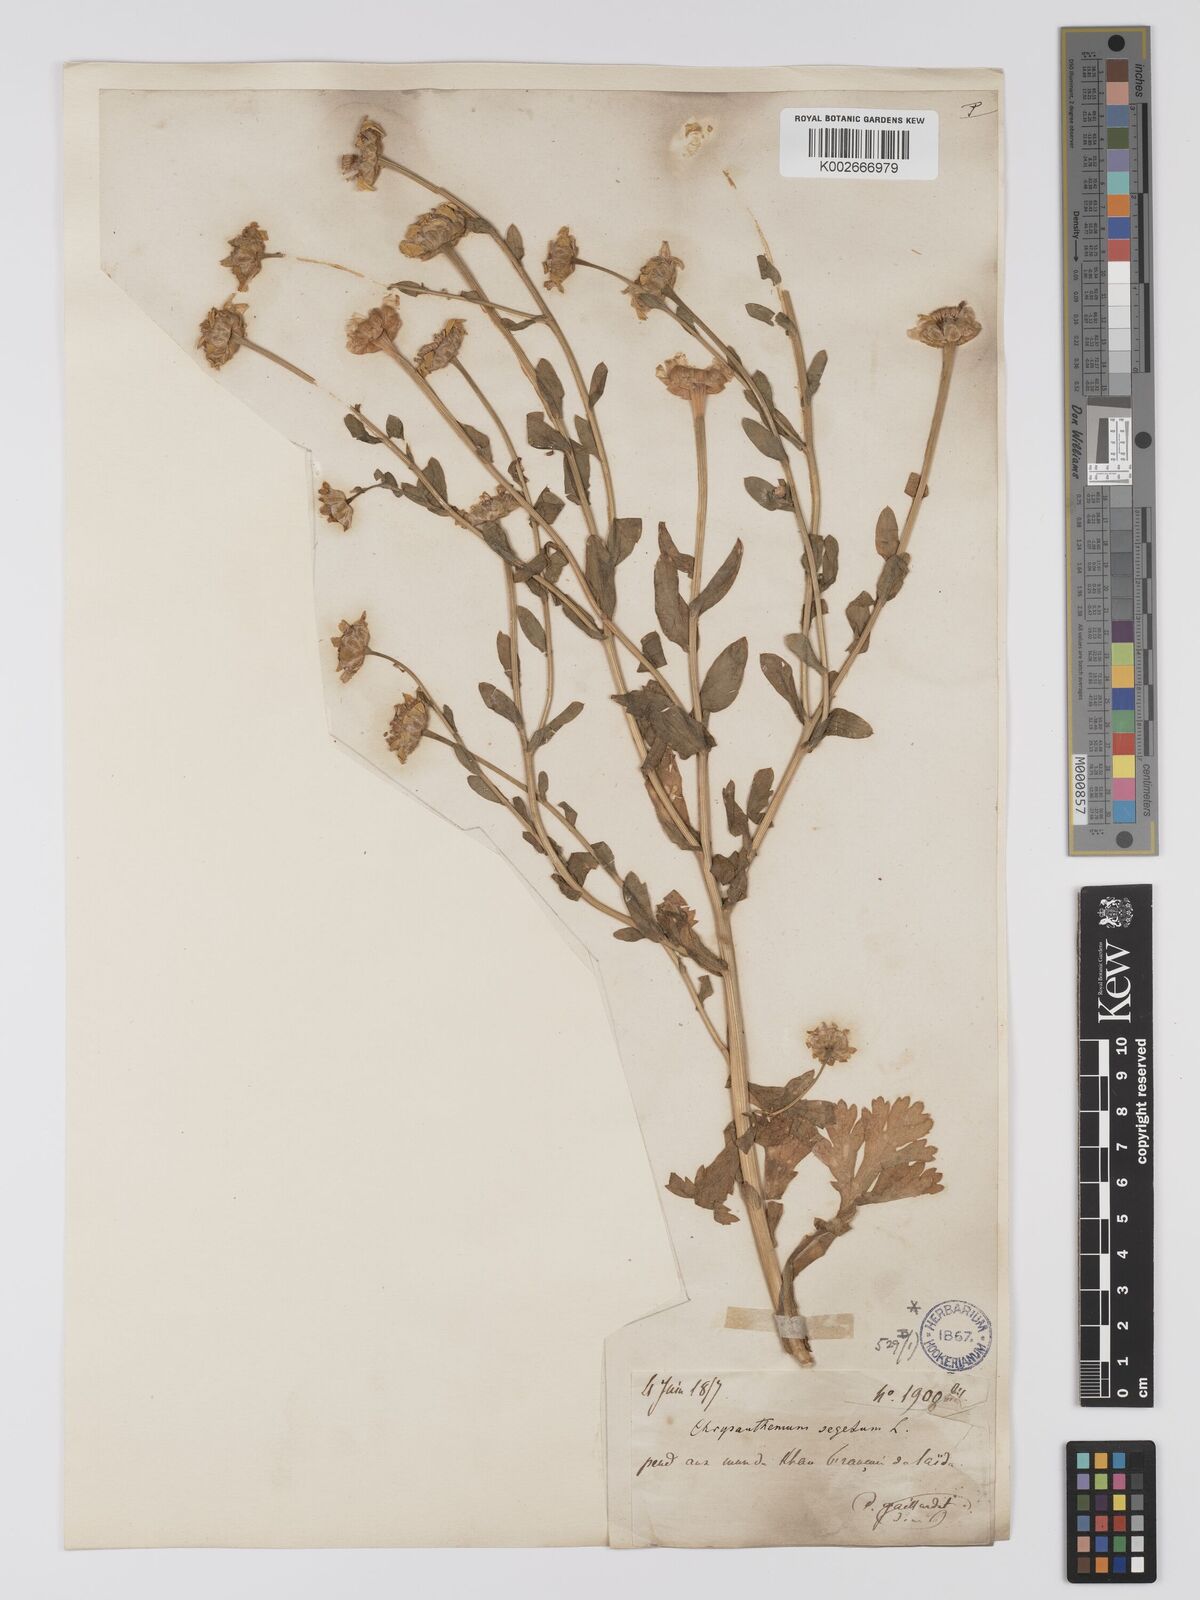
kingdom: Plantae
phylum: Tracheophyta
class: Magnoliopsida
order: Asterales
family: Asteraceae
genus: Glebionis
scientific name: Glebionis segetum
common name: Corndaisy
